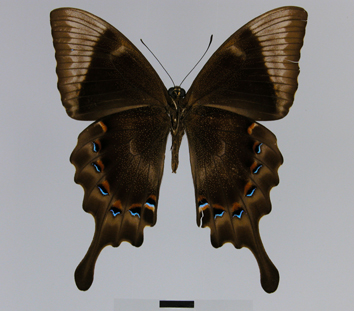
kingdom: Animalia
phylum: Arthropoda
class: Insecta
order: Lepidoptera
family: Papilionidae
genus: Papilio
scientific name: Papilio pericles
